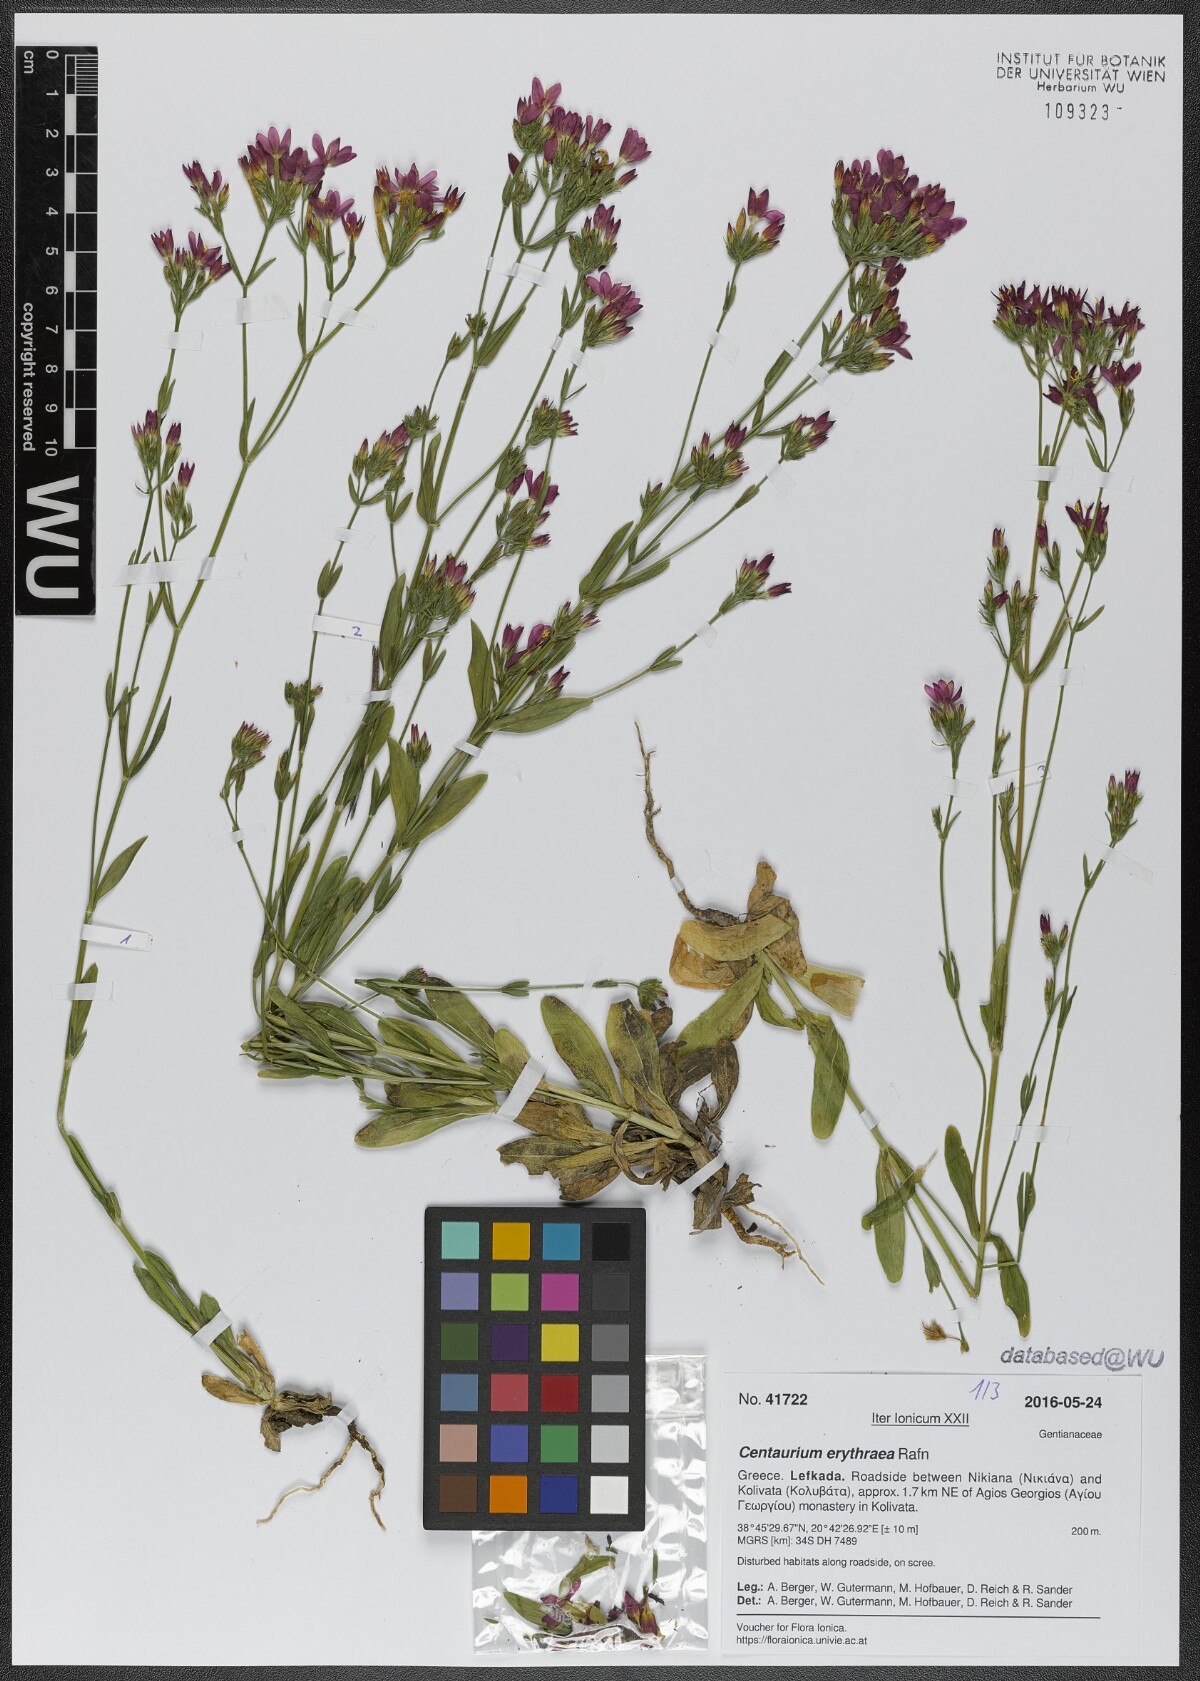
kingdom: Plantae
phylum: Tracheophyta
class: Magnoliopsida
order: Gentianales
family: Gentianaceae
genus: Centaurium
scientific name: Centaurium erythraea
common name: Common centaury
